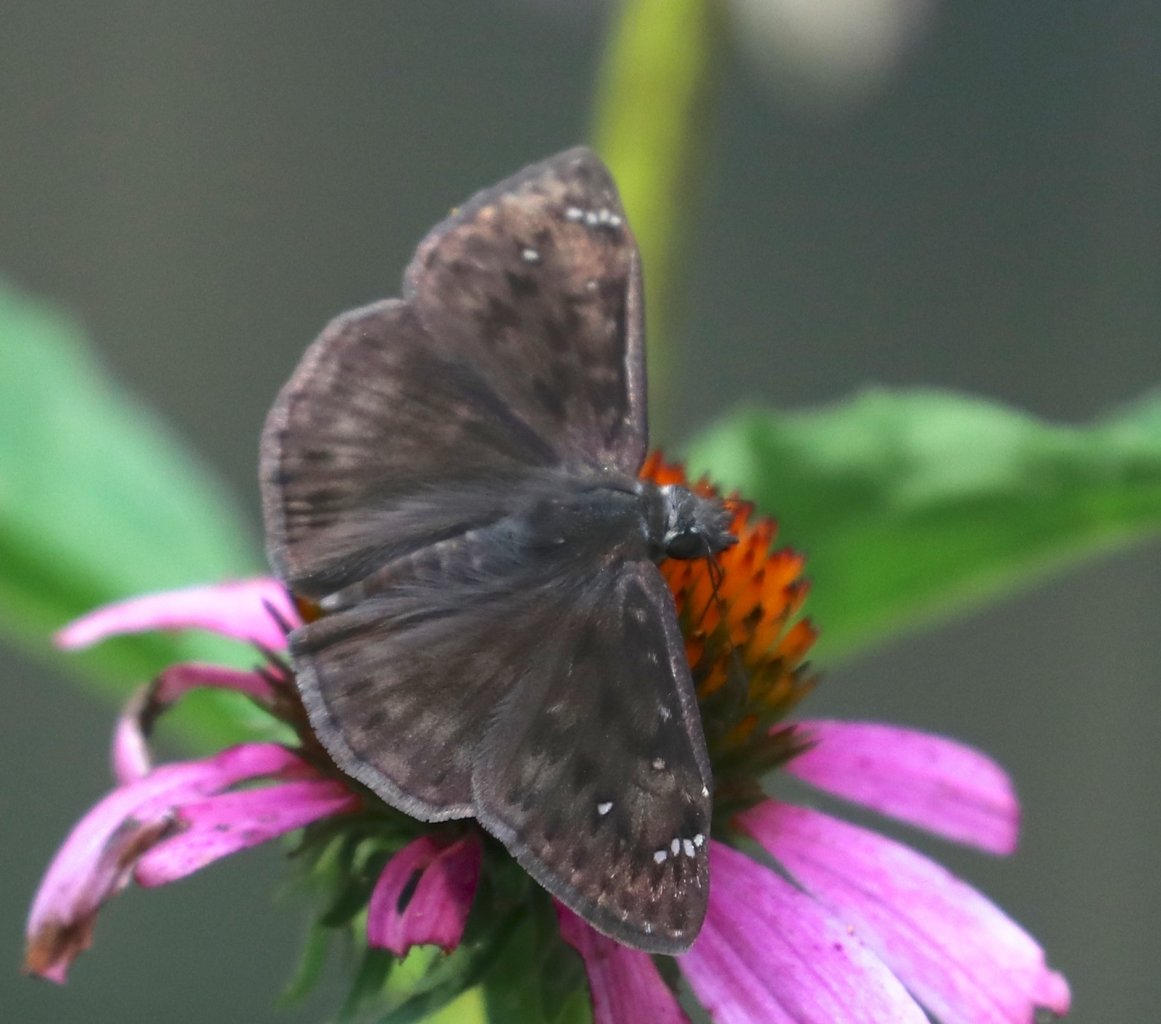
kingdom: Animalia
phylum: Arthropoda
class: Insecta
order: Lepidoptera
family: Hesperiidae
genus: Gesta
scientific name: Gesta
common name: Horace's Duskywing
